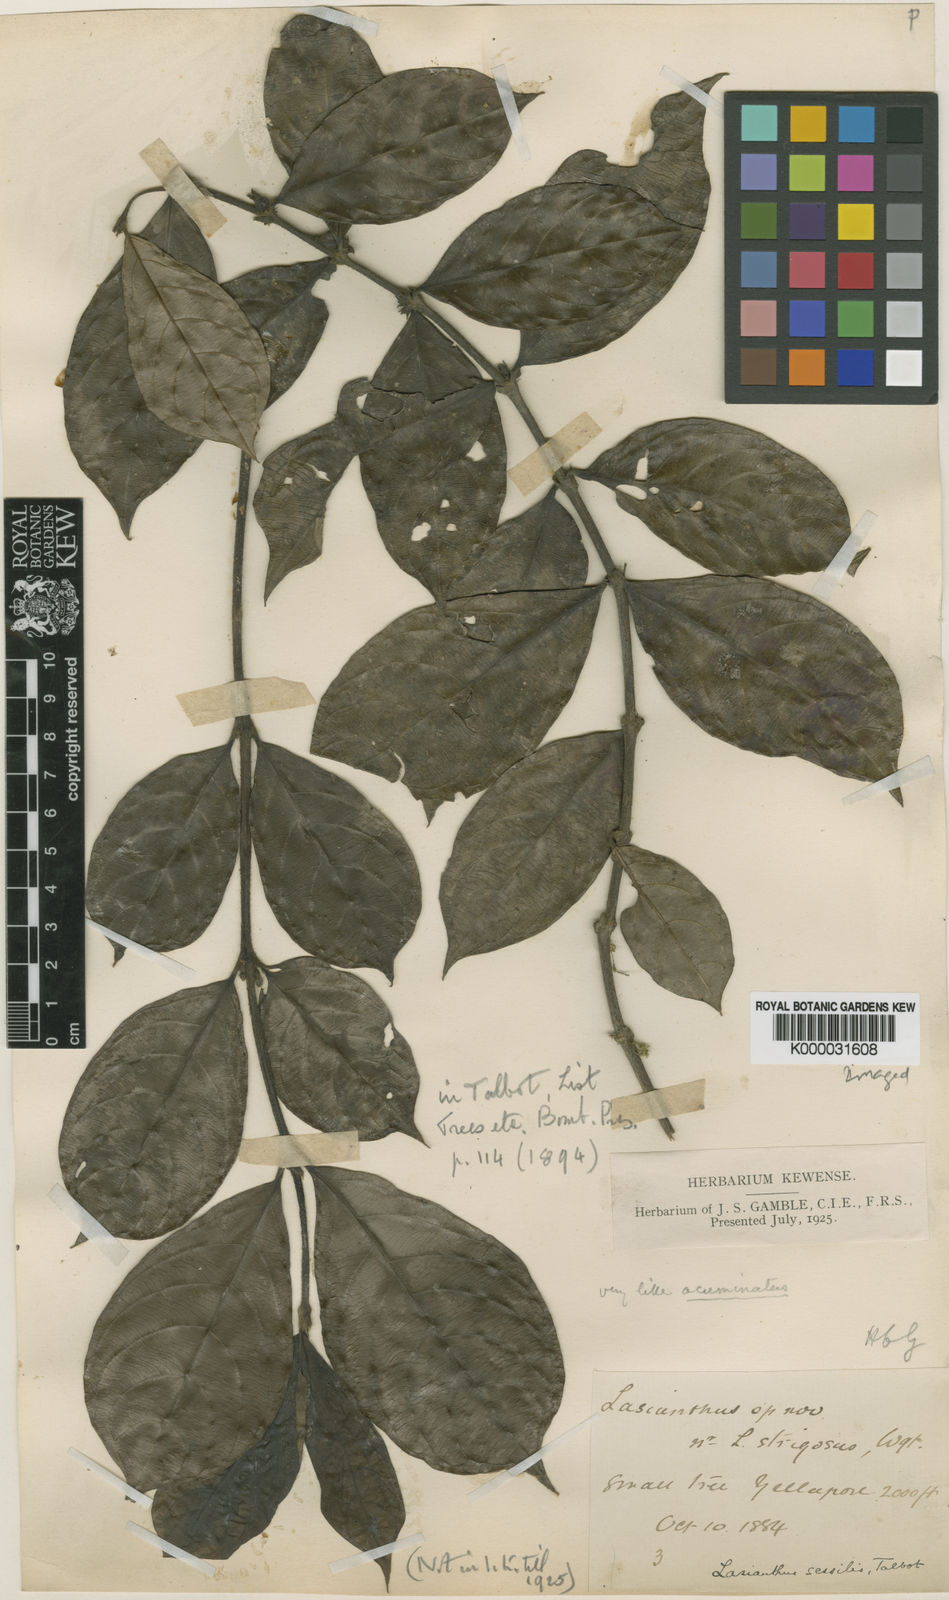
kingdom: Plantae
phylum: Tracheophyta
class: Magnoliopsida
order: Gentianales
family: Rubiaceae
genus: Lasianthus
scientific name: Lasianthus sessilis
